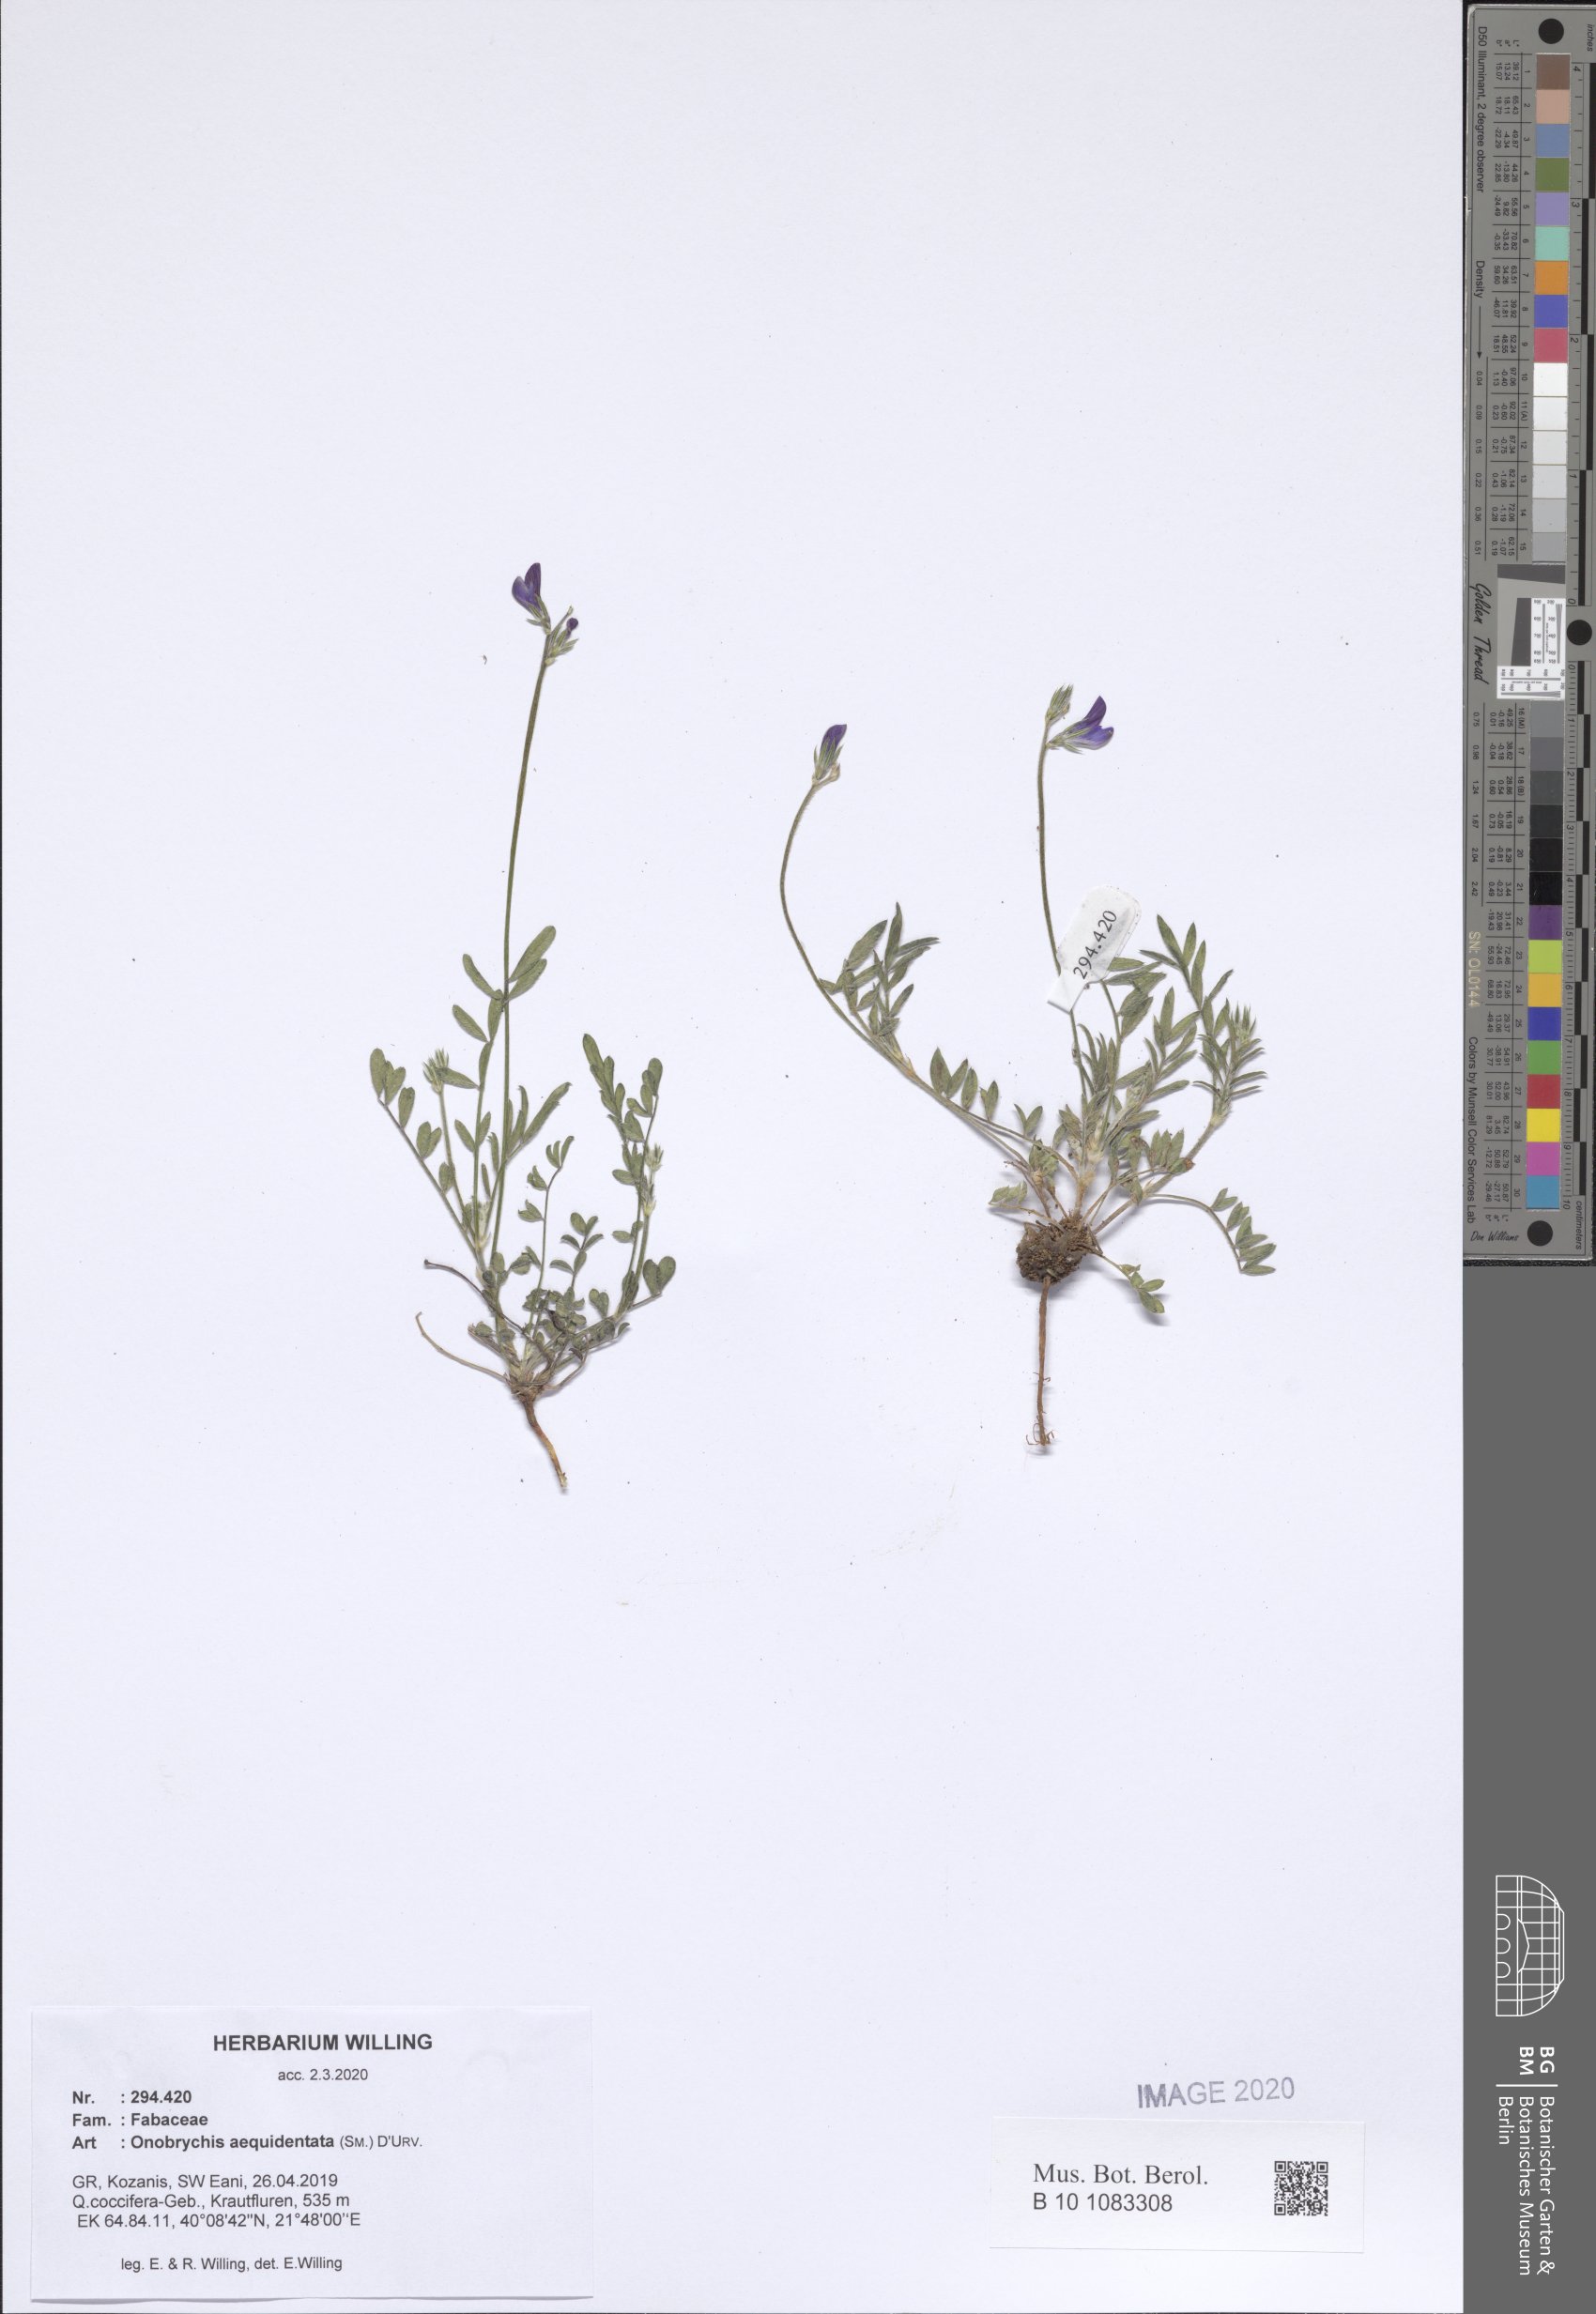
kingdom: Plantae
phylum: Tracheophyta
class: Magnoliopsida
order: Fabales
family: Fabaceae
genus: Onobrychis
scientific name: Onobrychis aequidentata
